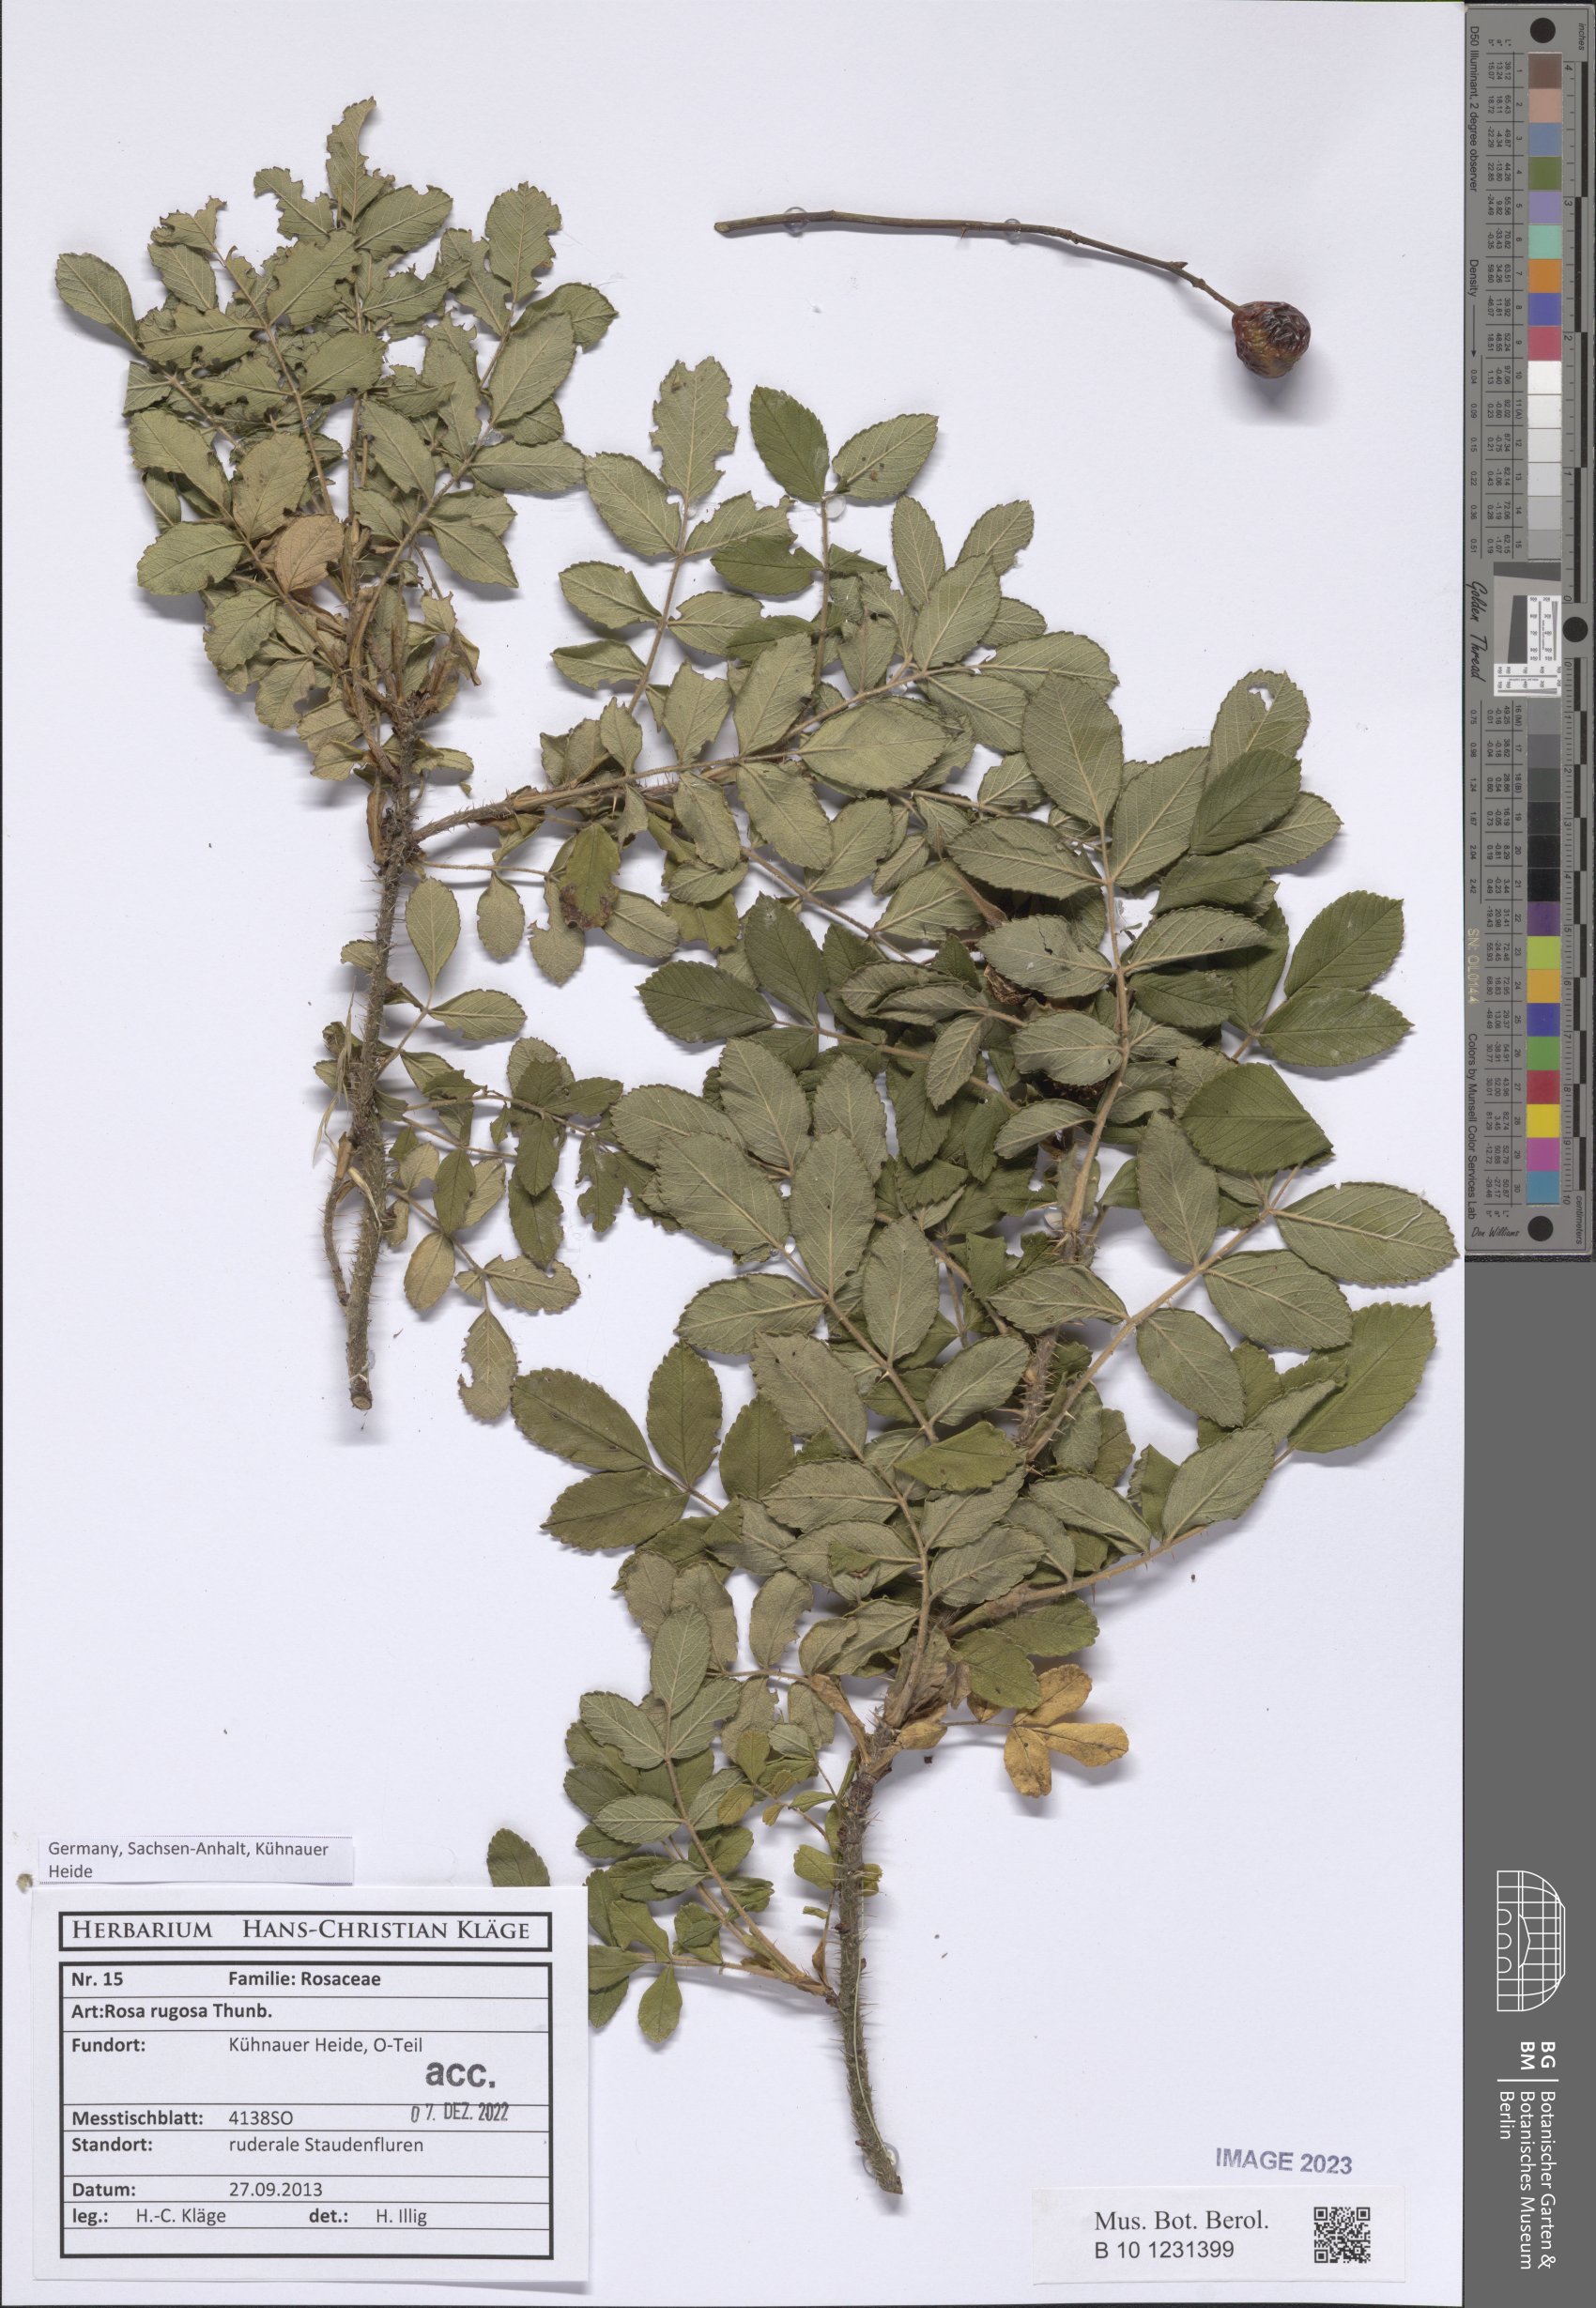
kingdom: Plantae
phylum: Tracheophyta
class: Magnoliopsida
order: Rosales
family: Rosaceae
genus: Rosa
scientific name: Rosa rugosa
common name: Japanese rose
